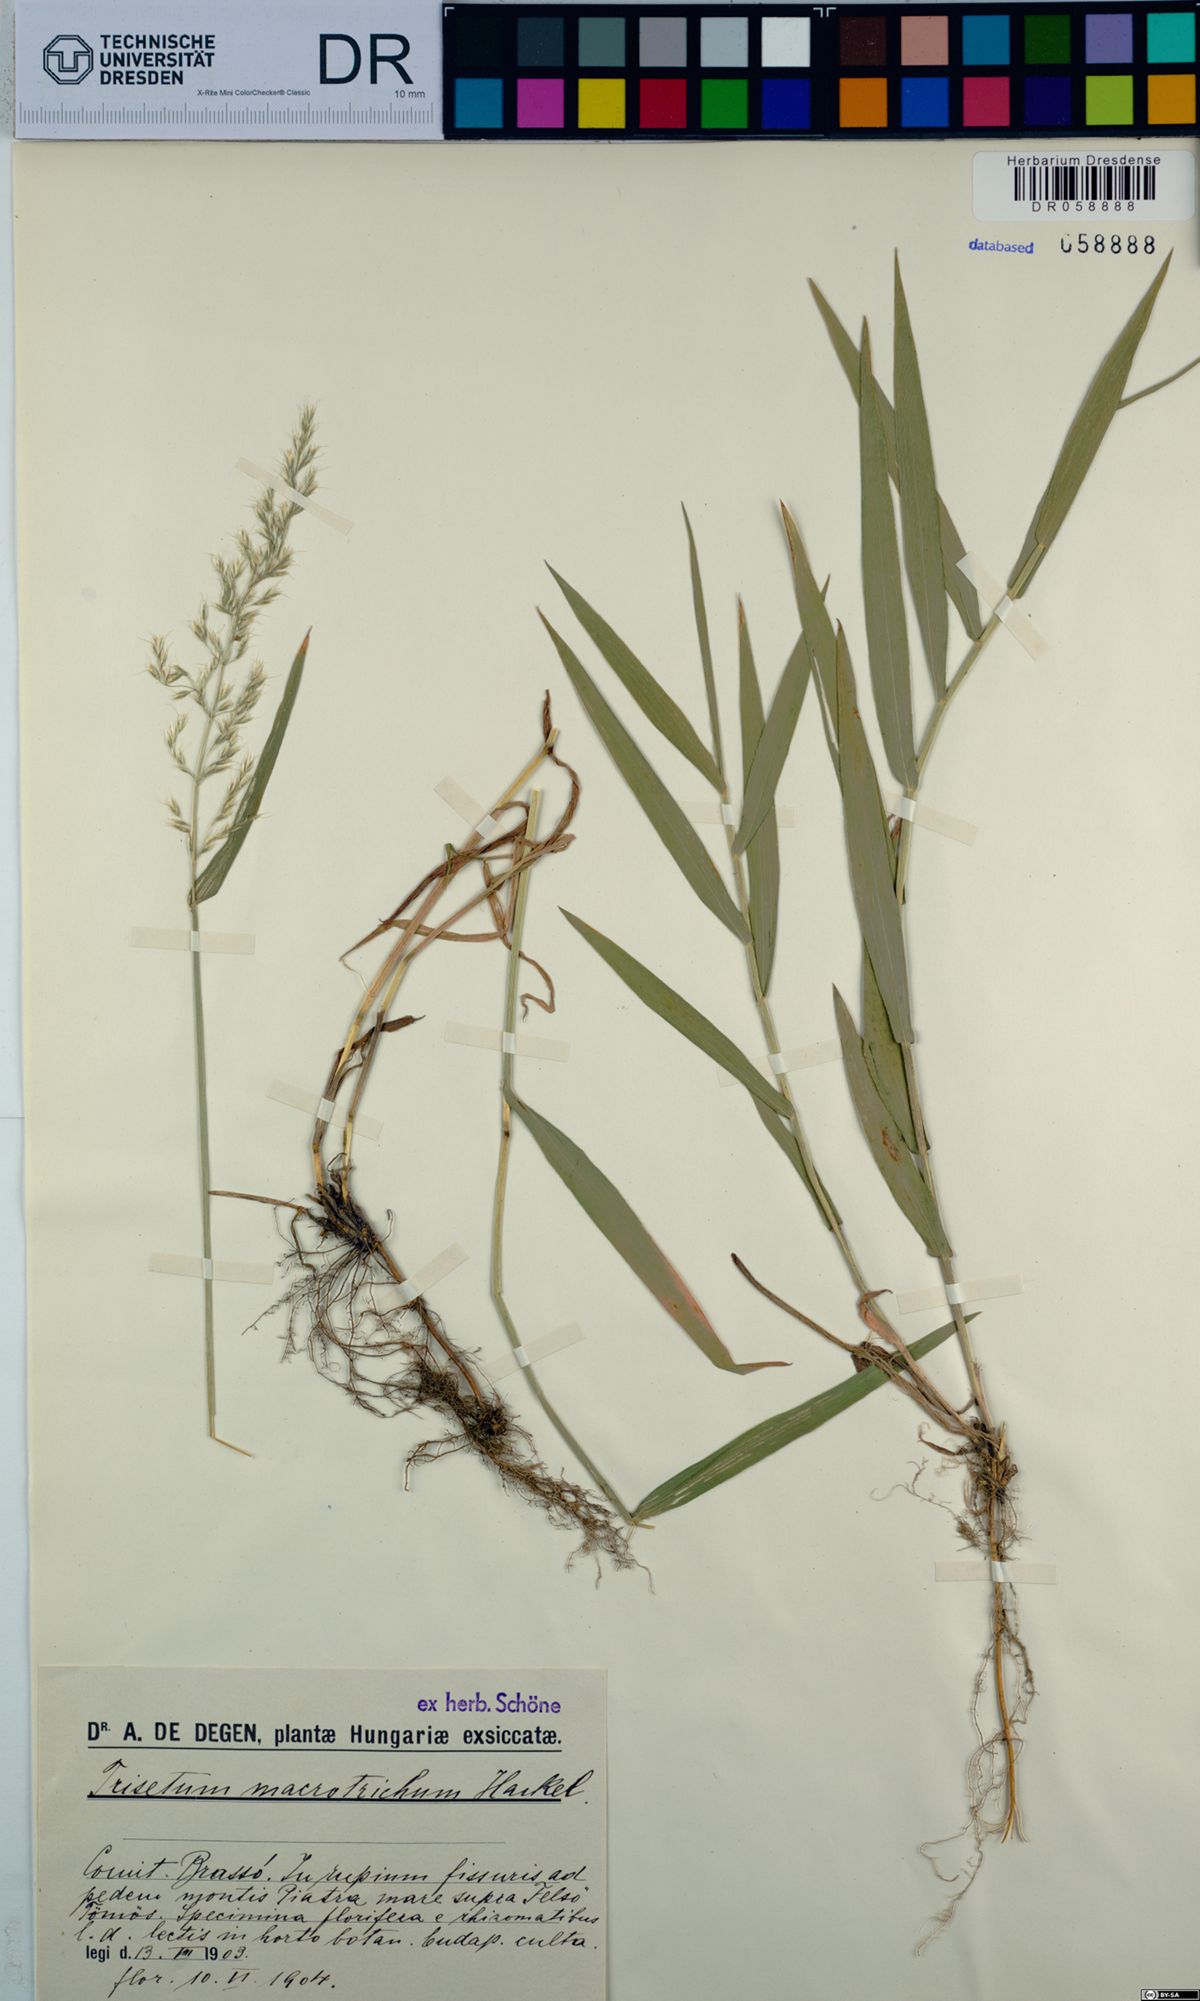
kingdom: Plantae
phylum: Tracheophyta
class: Liliopsida
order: Poales
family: Poaceae
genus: Trisetum
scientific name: Trisetum macrotrichum
